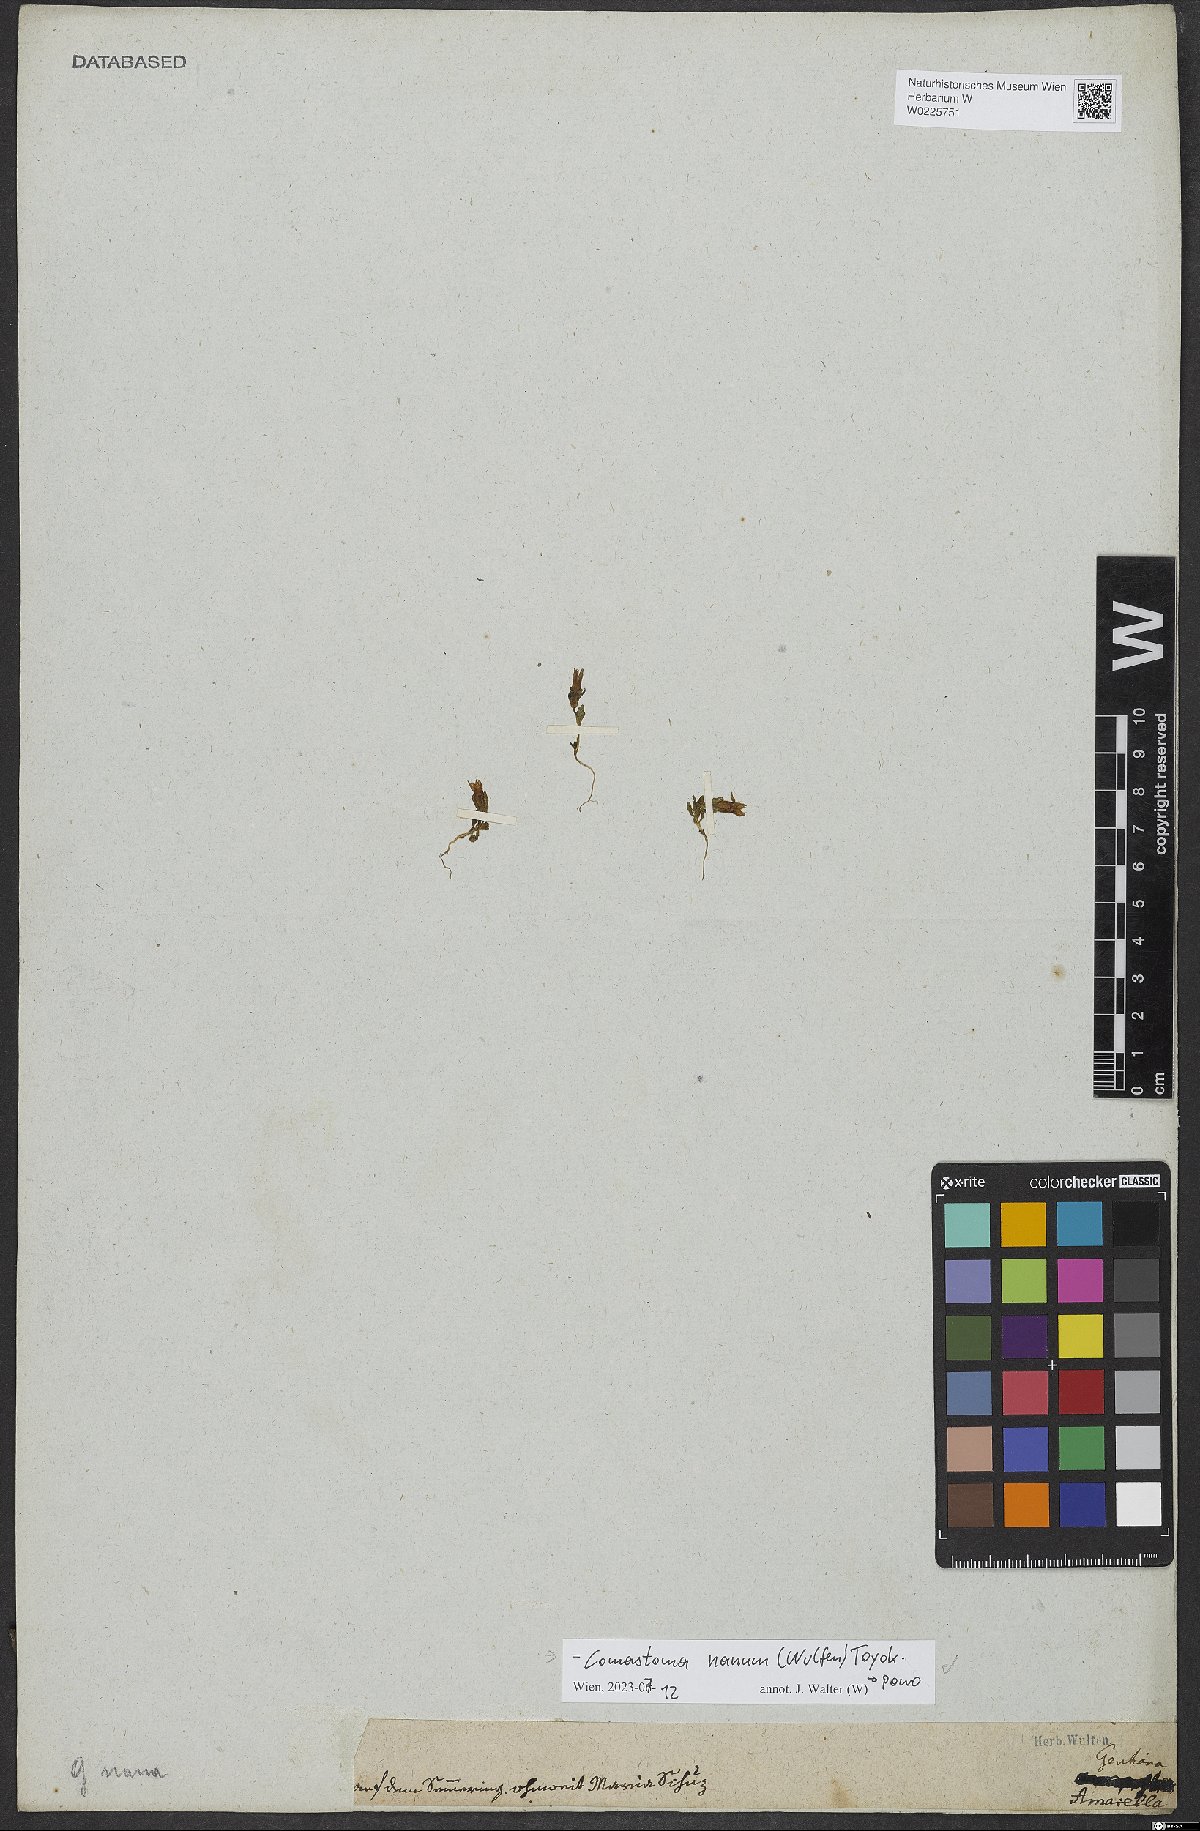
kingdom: Plantae
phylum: Tracheophyta
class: Magnoliopsida
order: Gentianales
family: Gentianaceae
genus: Comastoma
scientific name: Comastoma nanum
